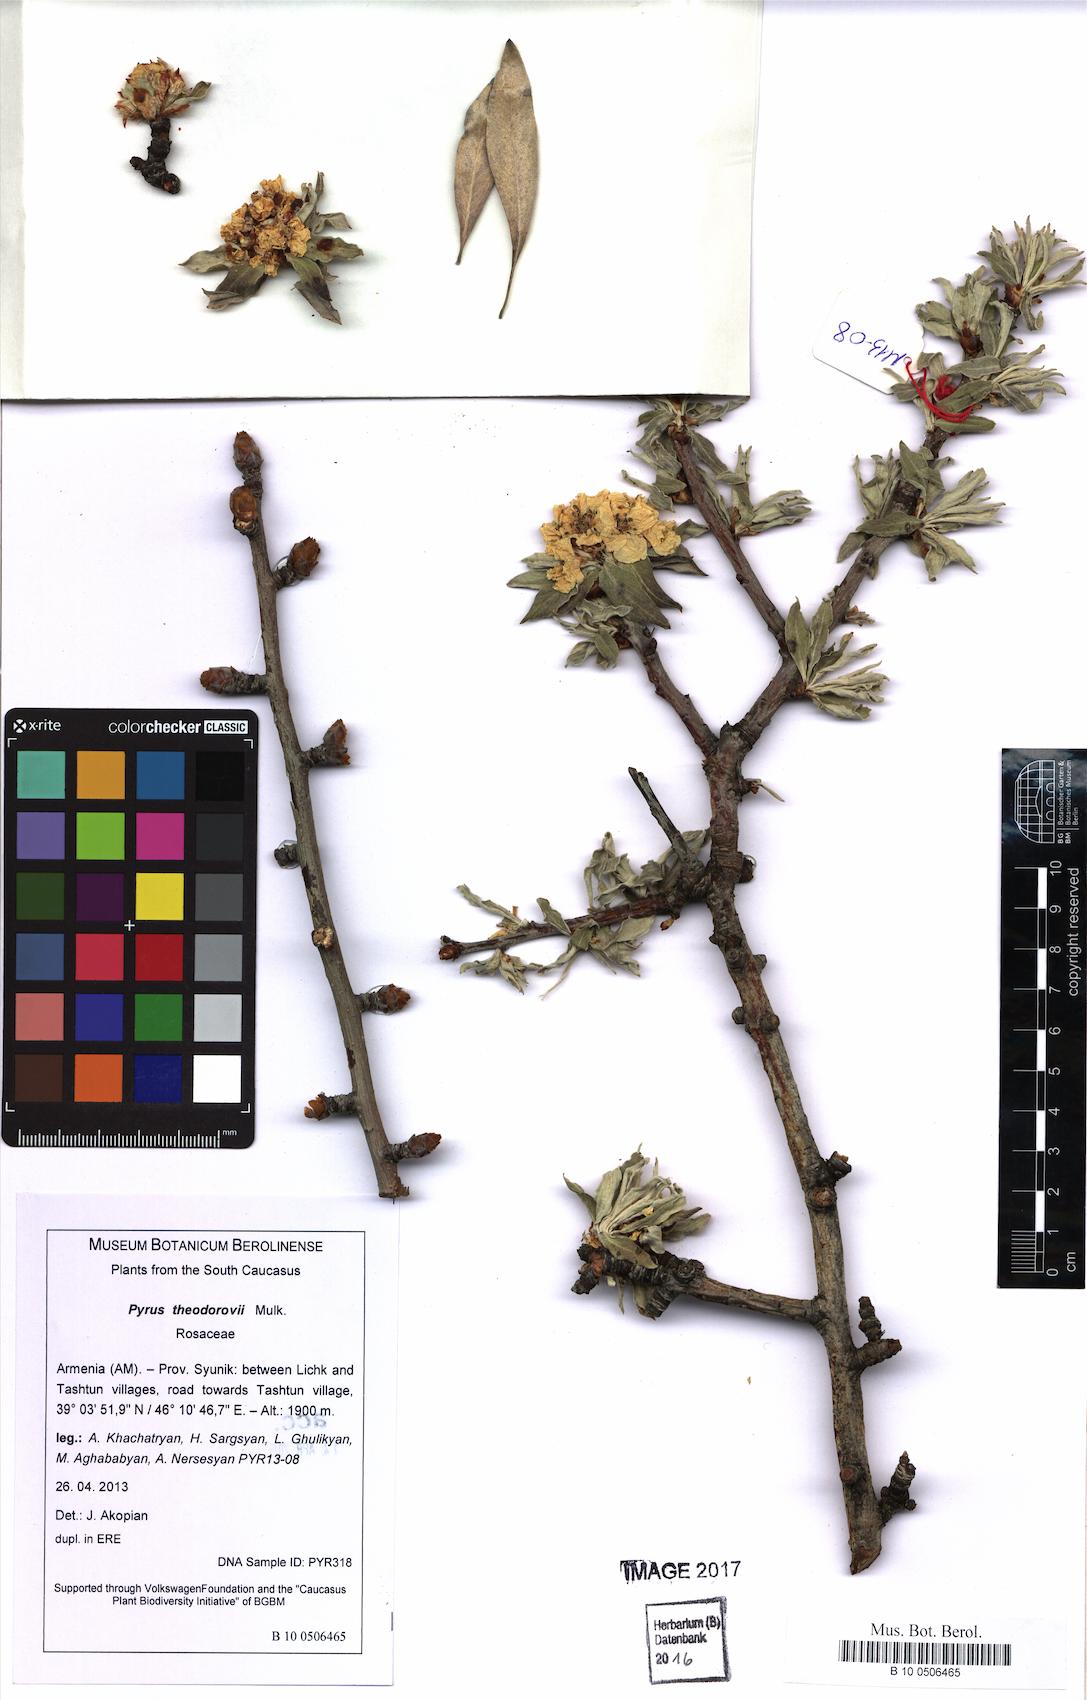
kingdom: Plantae
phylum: Tracheophyta
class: Magnoliopsida
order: Rosales
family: Rosaceae
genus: Pyrus
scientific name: Pyrus theodorovii
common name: Teodorov's pear
